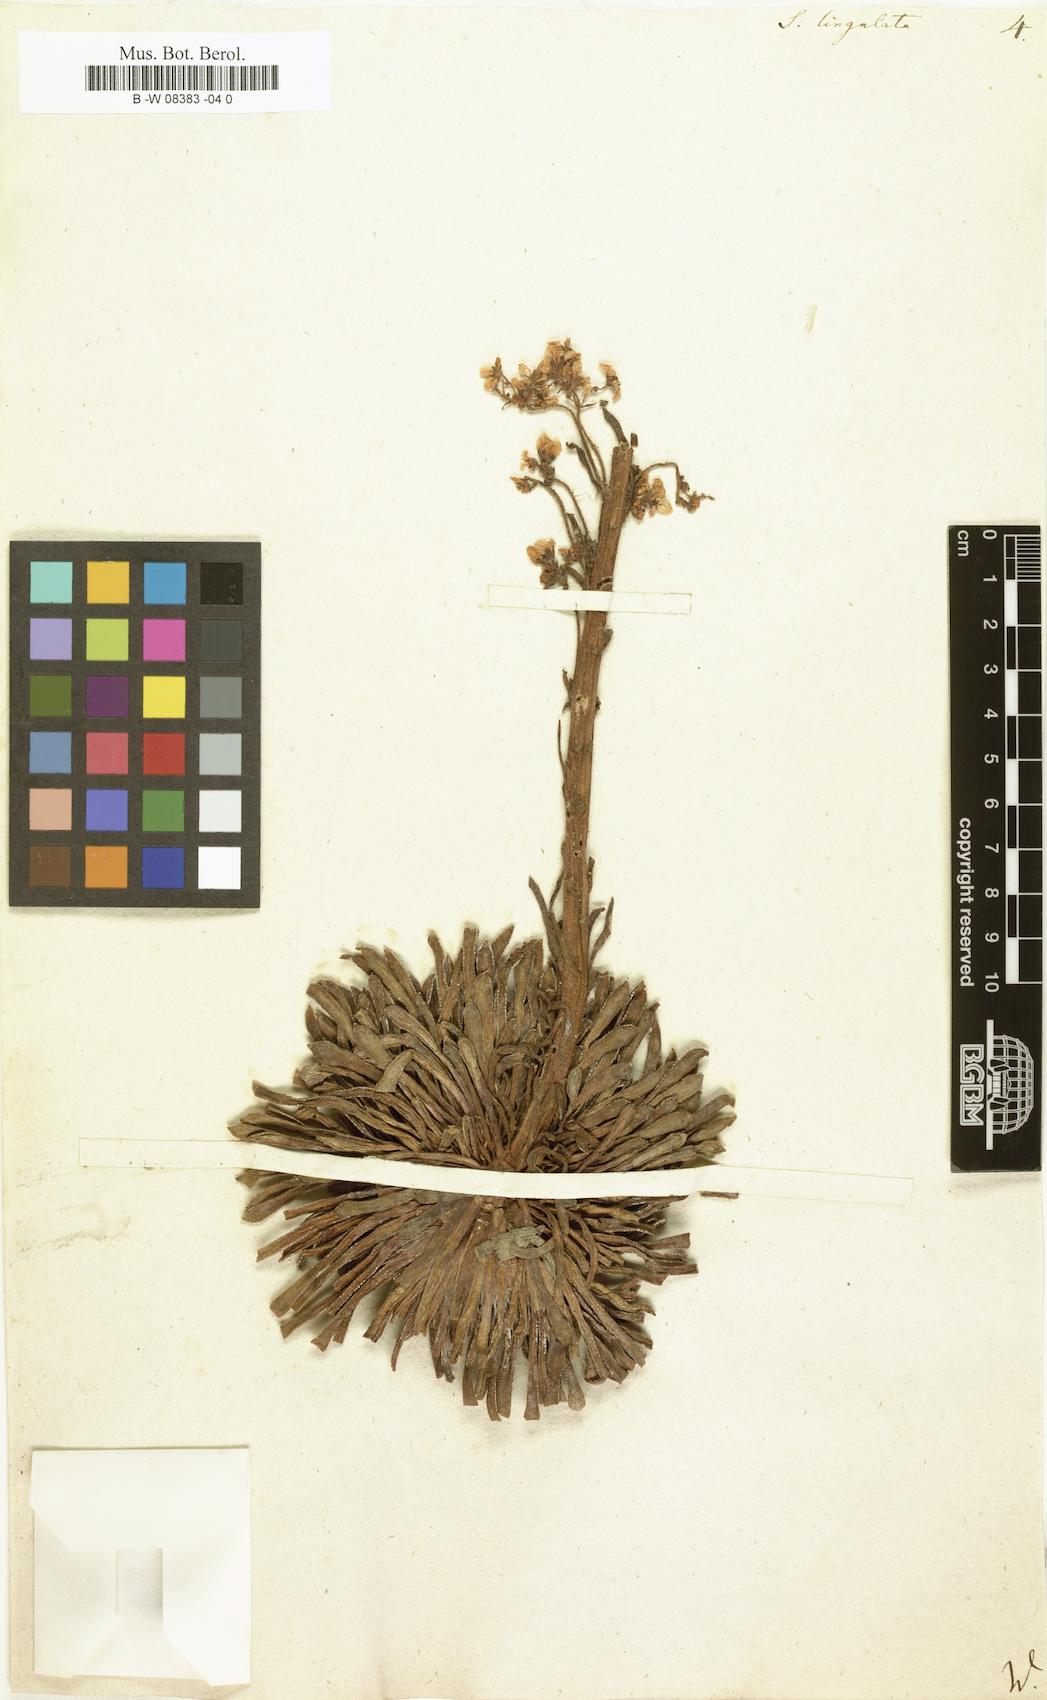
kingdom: Plantae
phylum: Tracheophyta
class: Magnoliopsida
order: Saxifragales
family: Saxifragaceae
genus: Saxifraga
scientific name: Saxifraga
